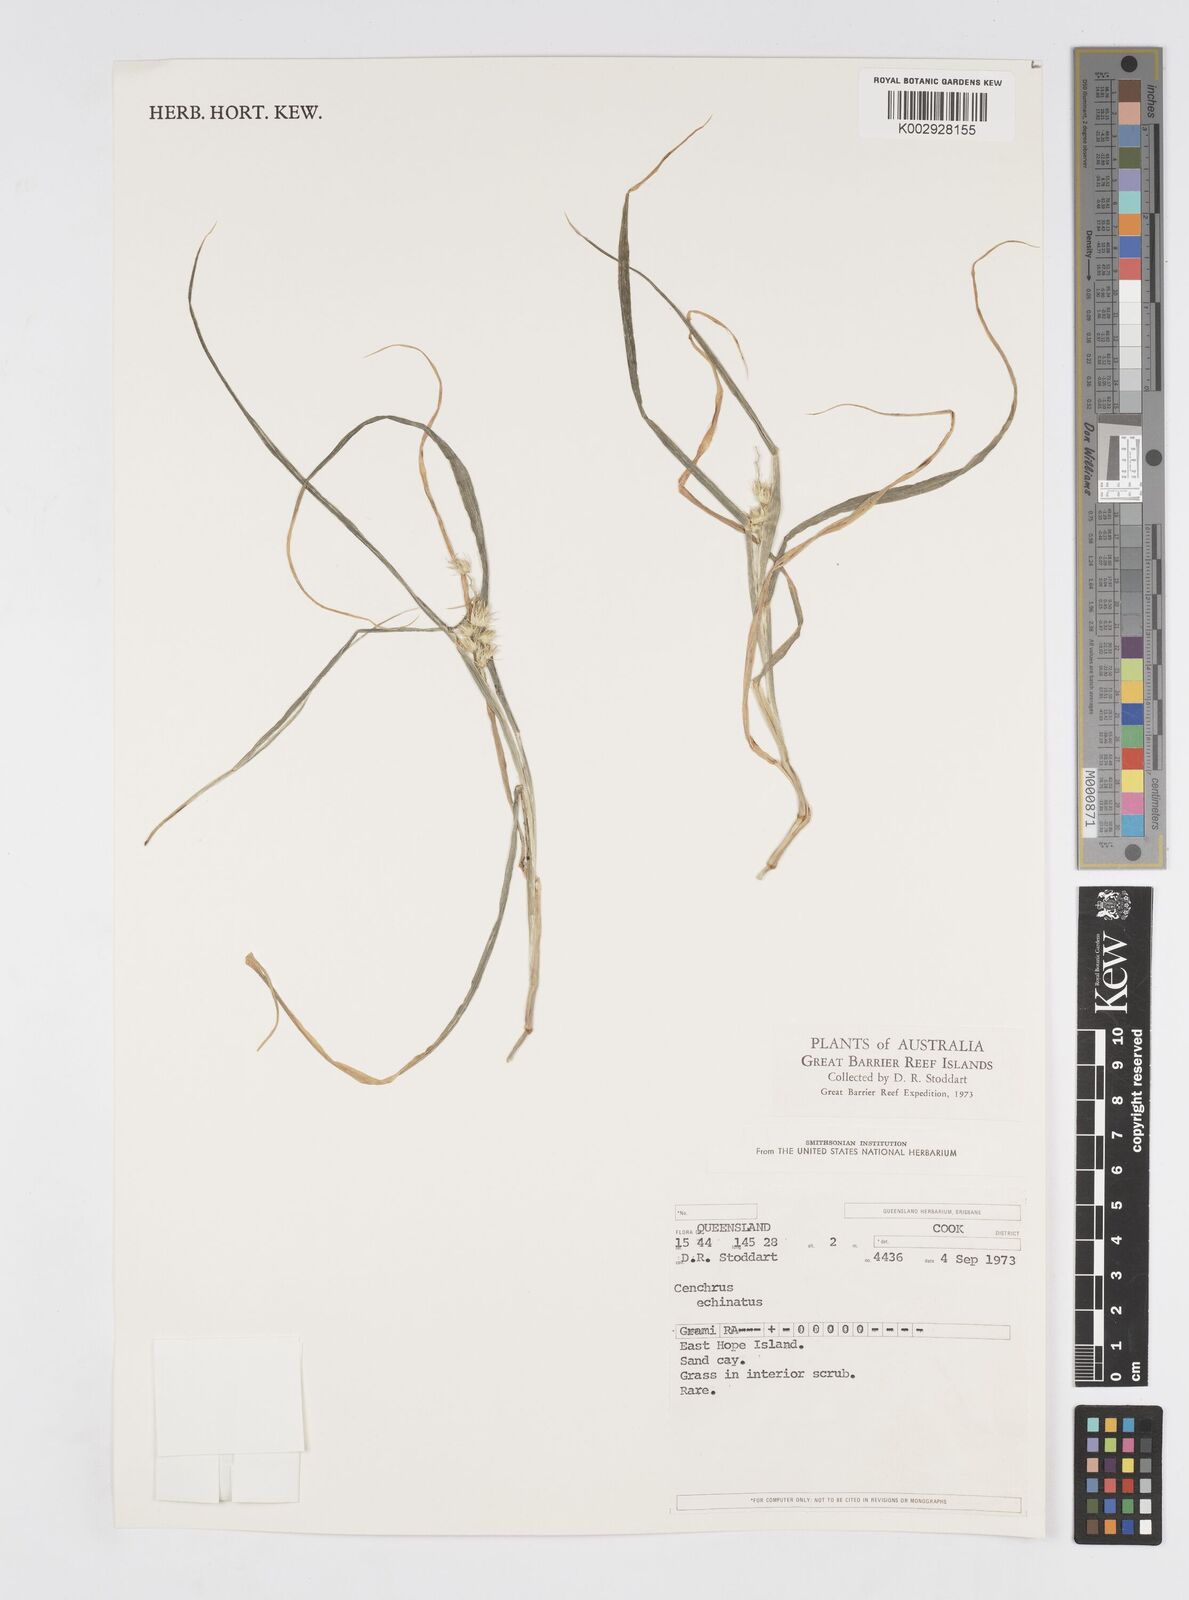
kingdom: Plantae
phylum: Tracheophyta
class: Liliopsida
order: Poales
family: Poaceae
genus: Cenchrus
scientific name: Cenchrus echinatus
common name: Southern sandbur
